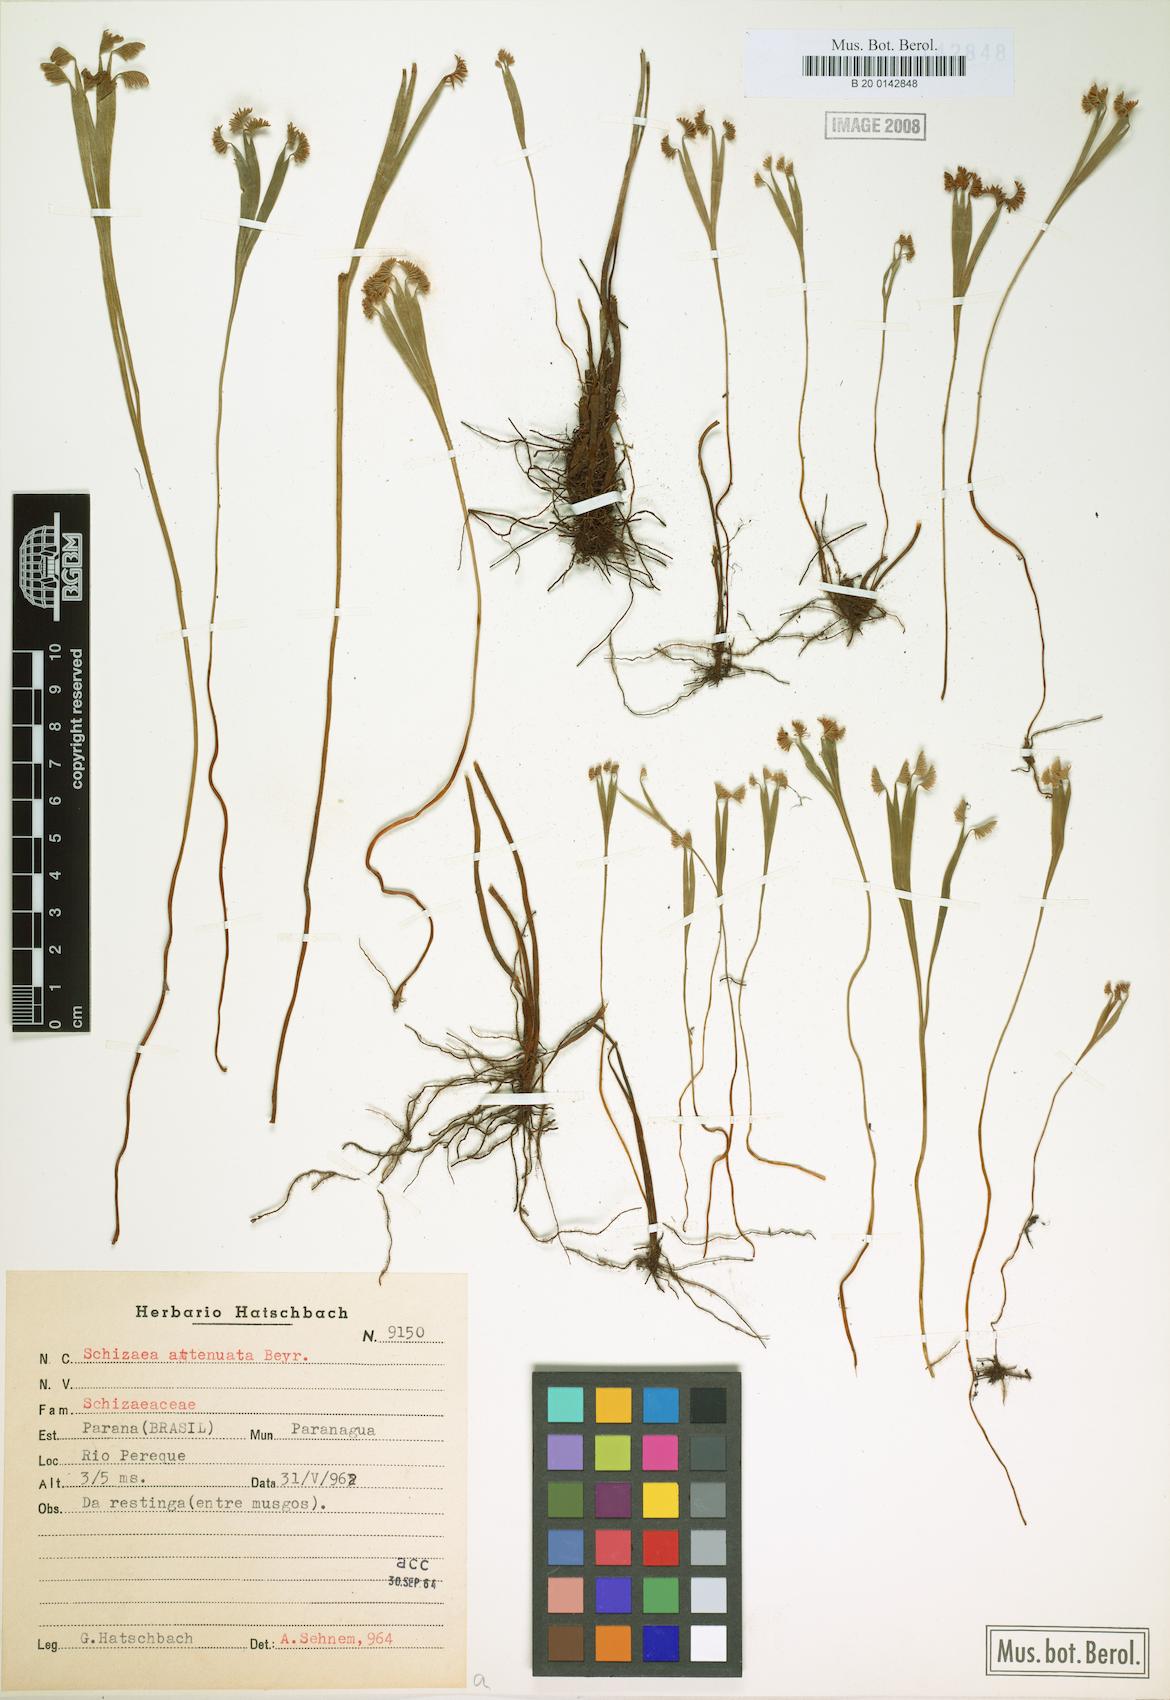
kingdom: Plantae
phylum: Tracheophyta
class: Polypodiopsida
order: Schizaeales
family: Schizaeaceae
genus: Schizaea
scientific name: Schizaea elegans
